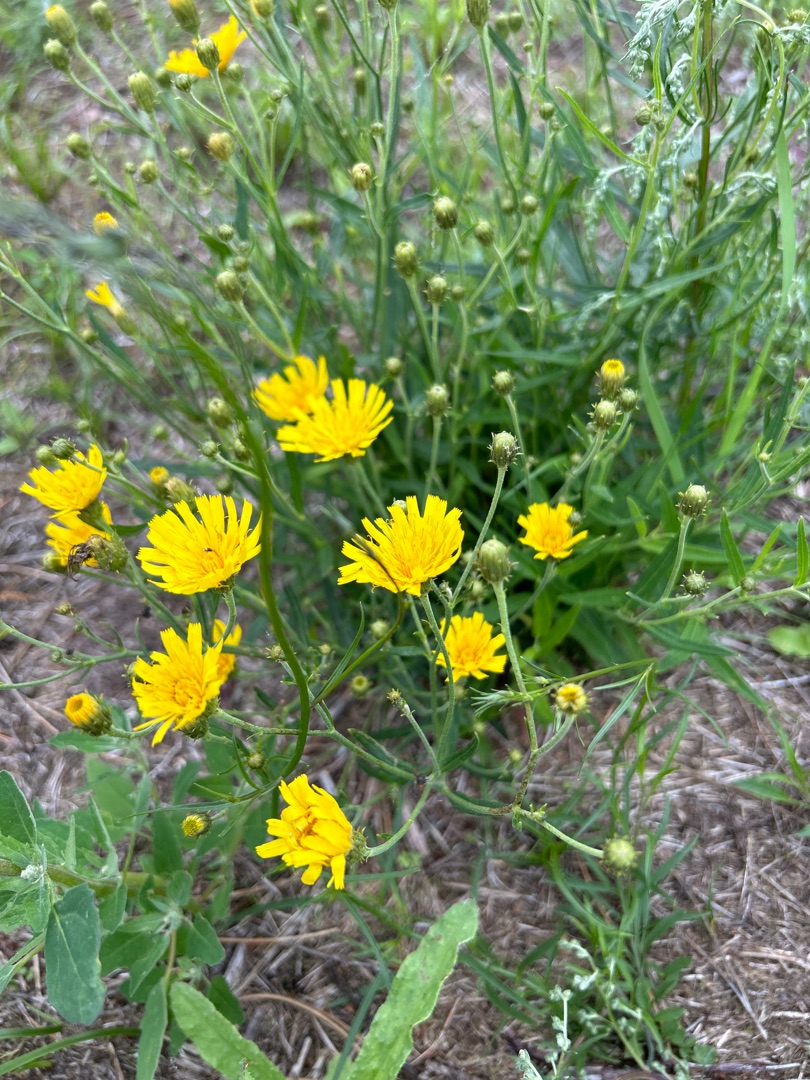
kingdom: Plantae
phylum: Tracheophyta
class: Magnoliopsida
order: Asterales
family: Asteraceae
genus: Hieracium
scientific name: Hieracium umbellatum
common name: Smalbladet høgeurt
